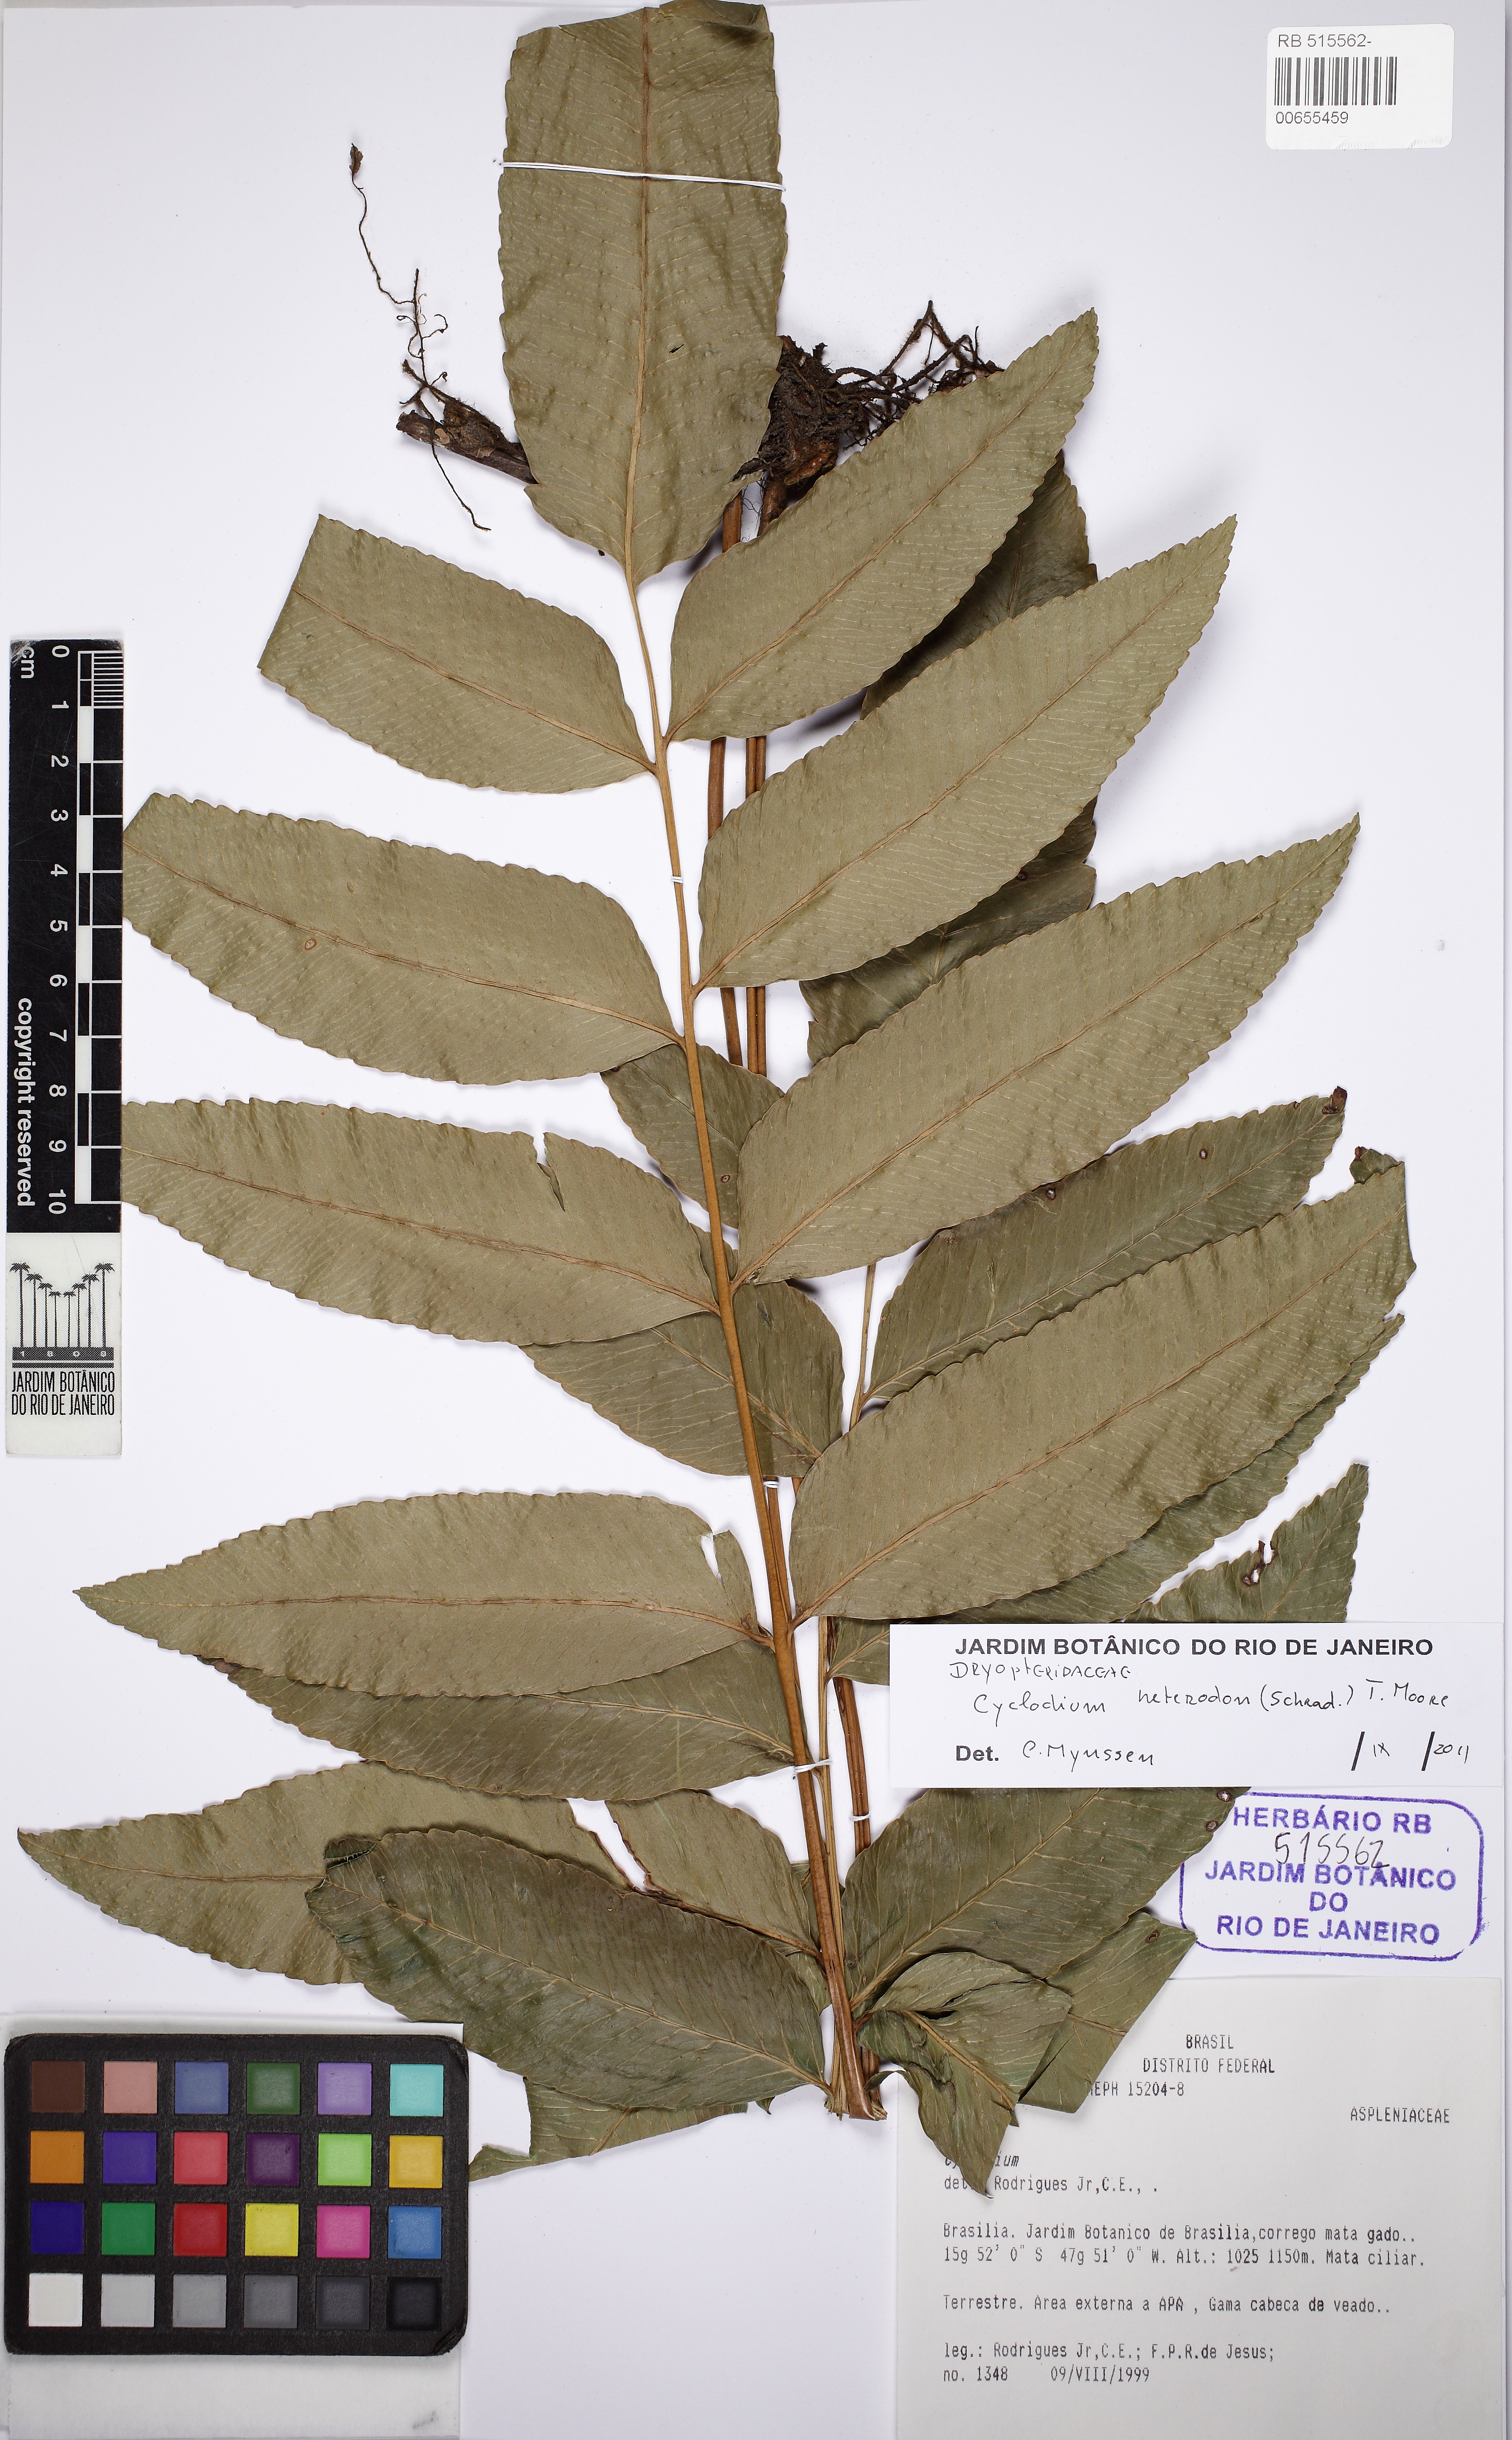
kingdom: Plantae
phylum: Tracheophyta
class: Polypodiopsida
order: Polypodiales
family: Dryopteridaceae
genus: Cyclodium
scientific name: Cyclodium heterodon
